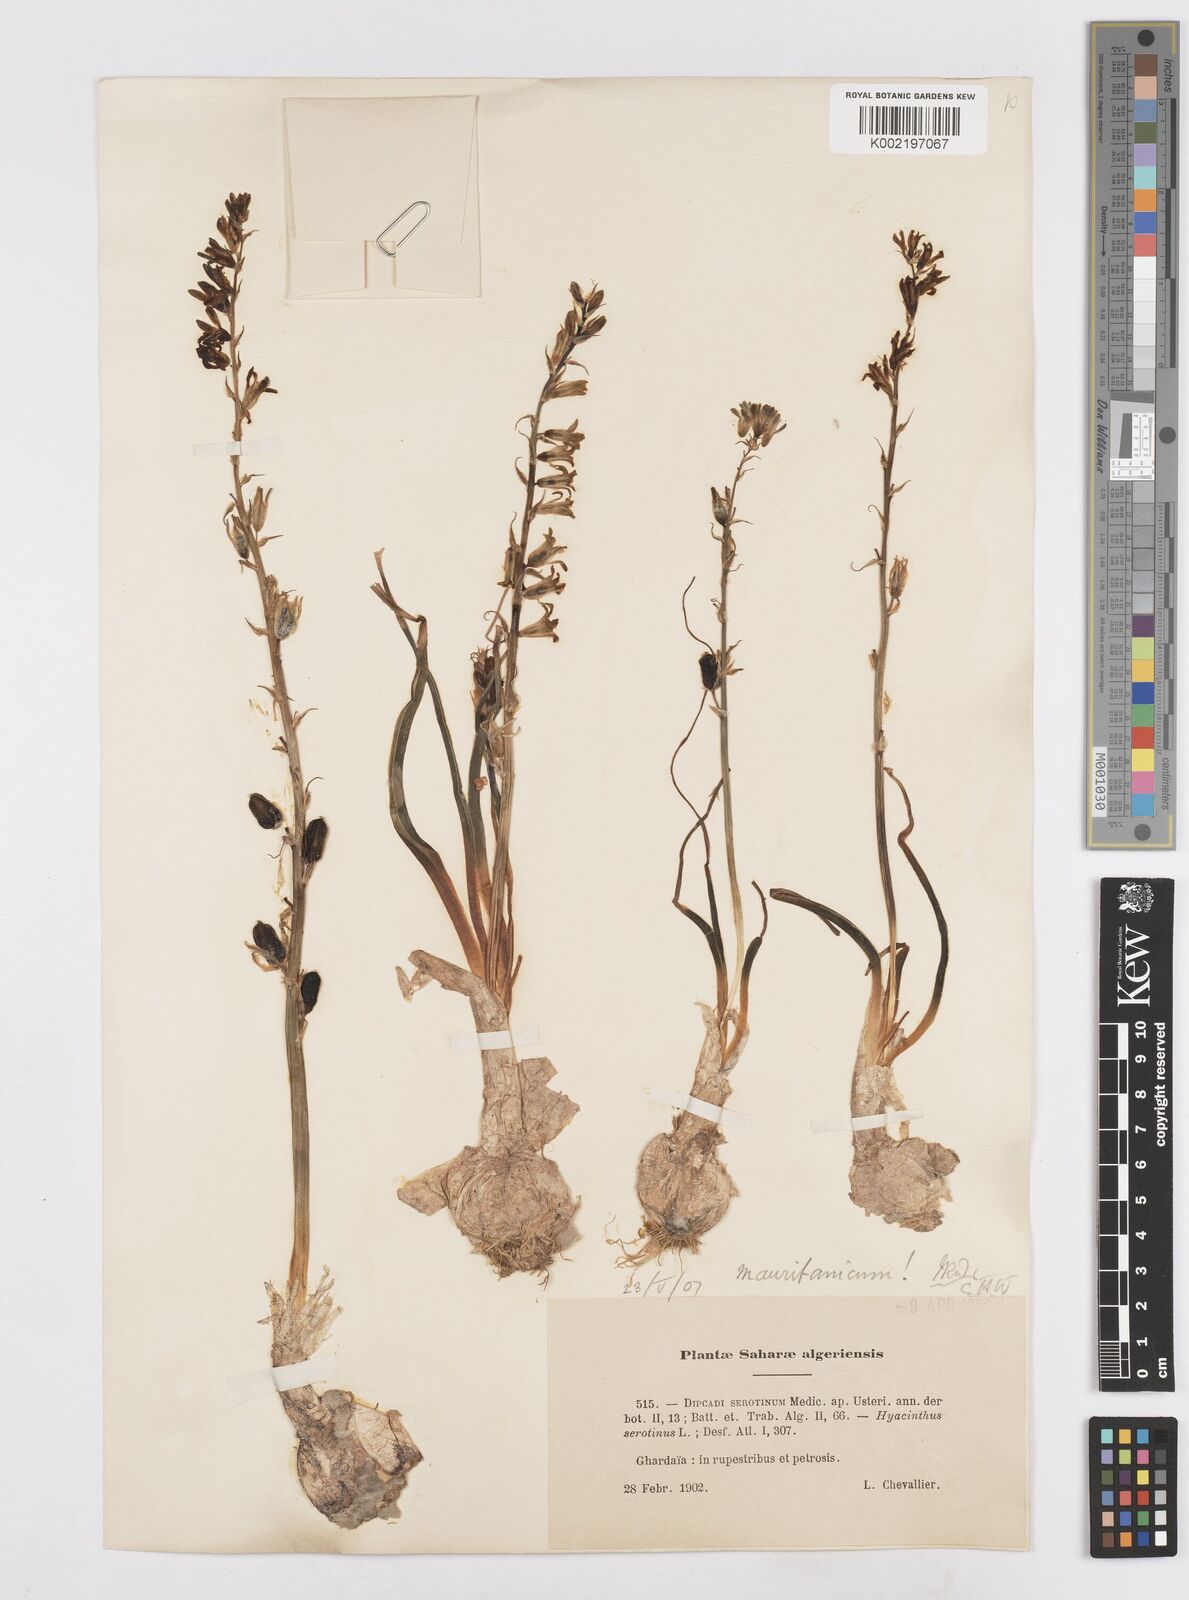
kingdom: Plantae
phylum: Tracheophyta
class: Liliopsida
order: Asparagales
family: Asparagaceae
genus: Dipcadi
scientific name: Dipcadi
